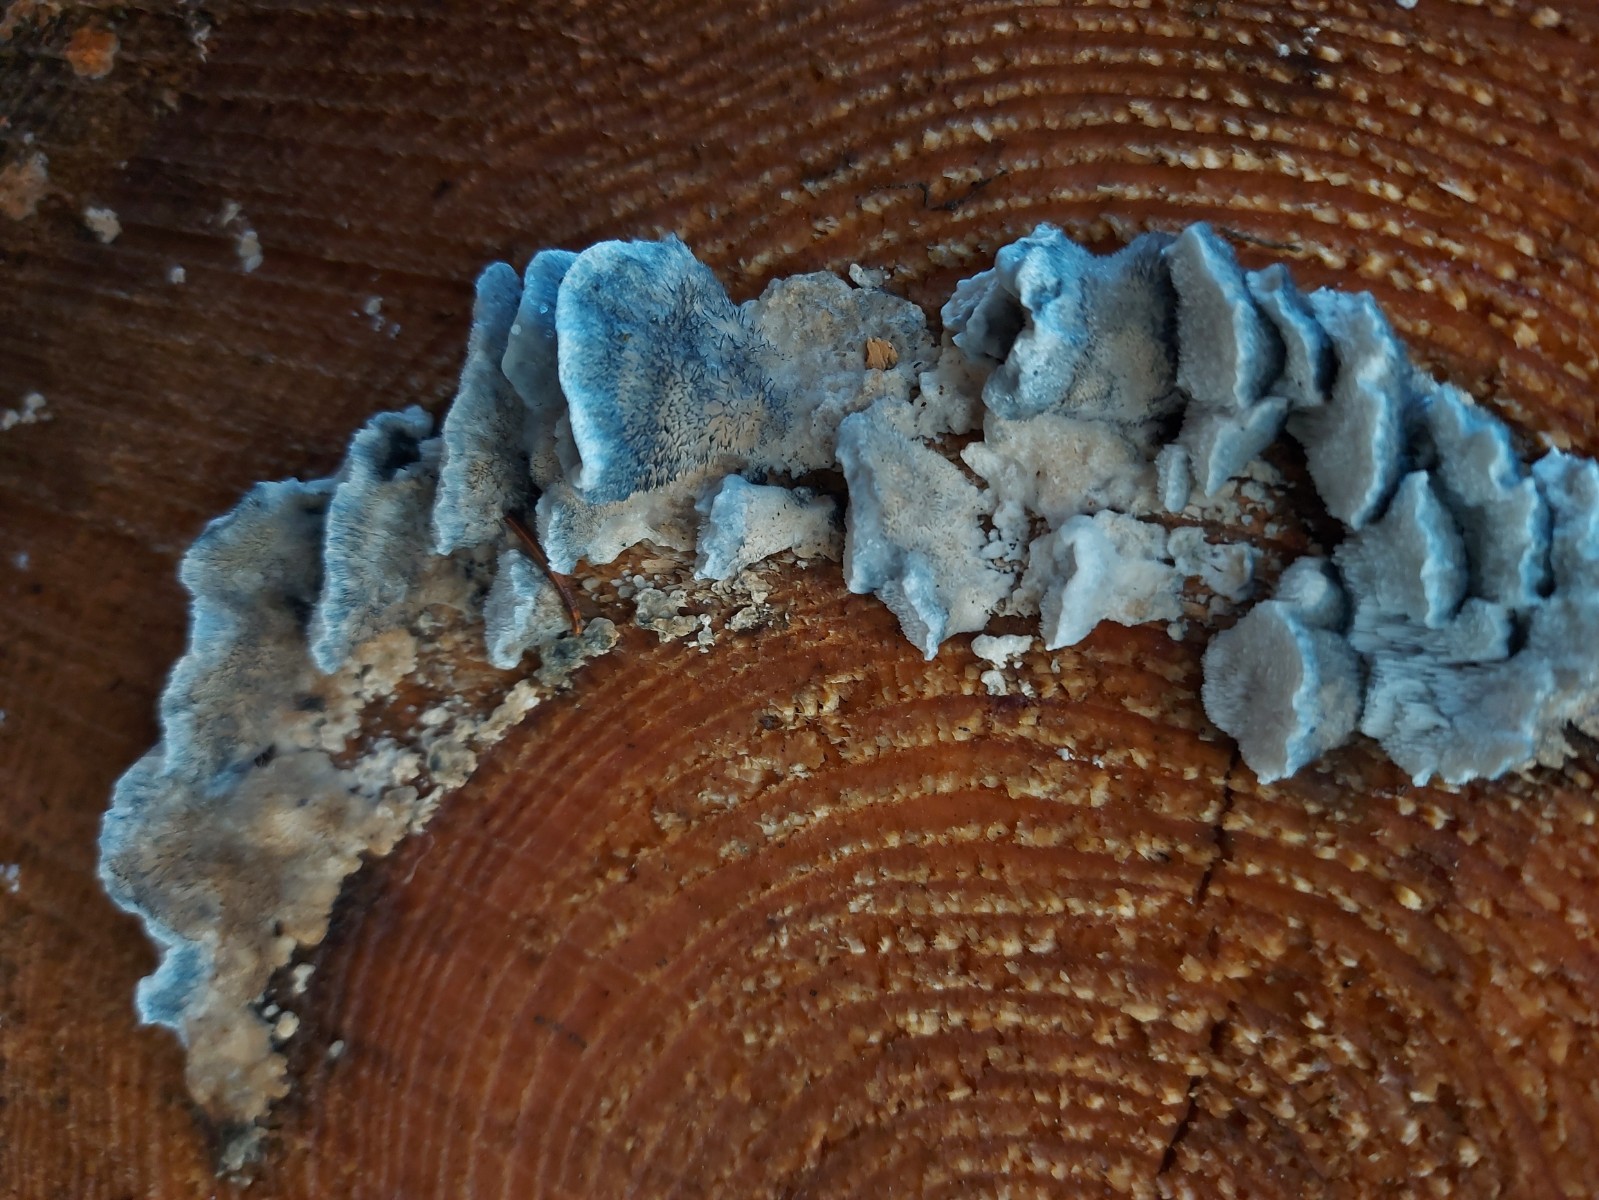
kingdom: Fungi
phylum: Basidiomycota
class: Agaricomycetes
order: Polyporales
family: Polyporaceae
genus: Cyanosporus
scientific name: Cyanosporus caesius
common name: blålig kødporesvamp
